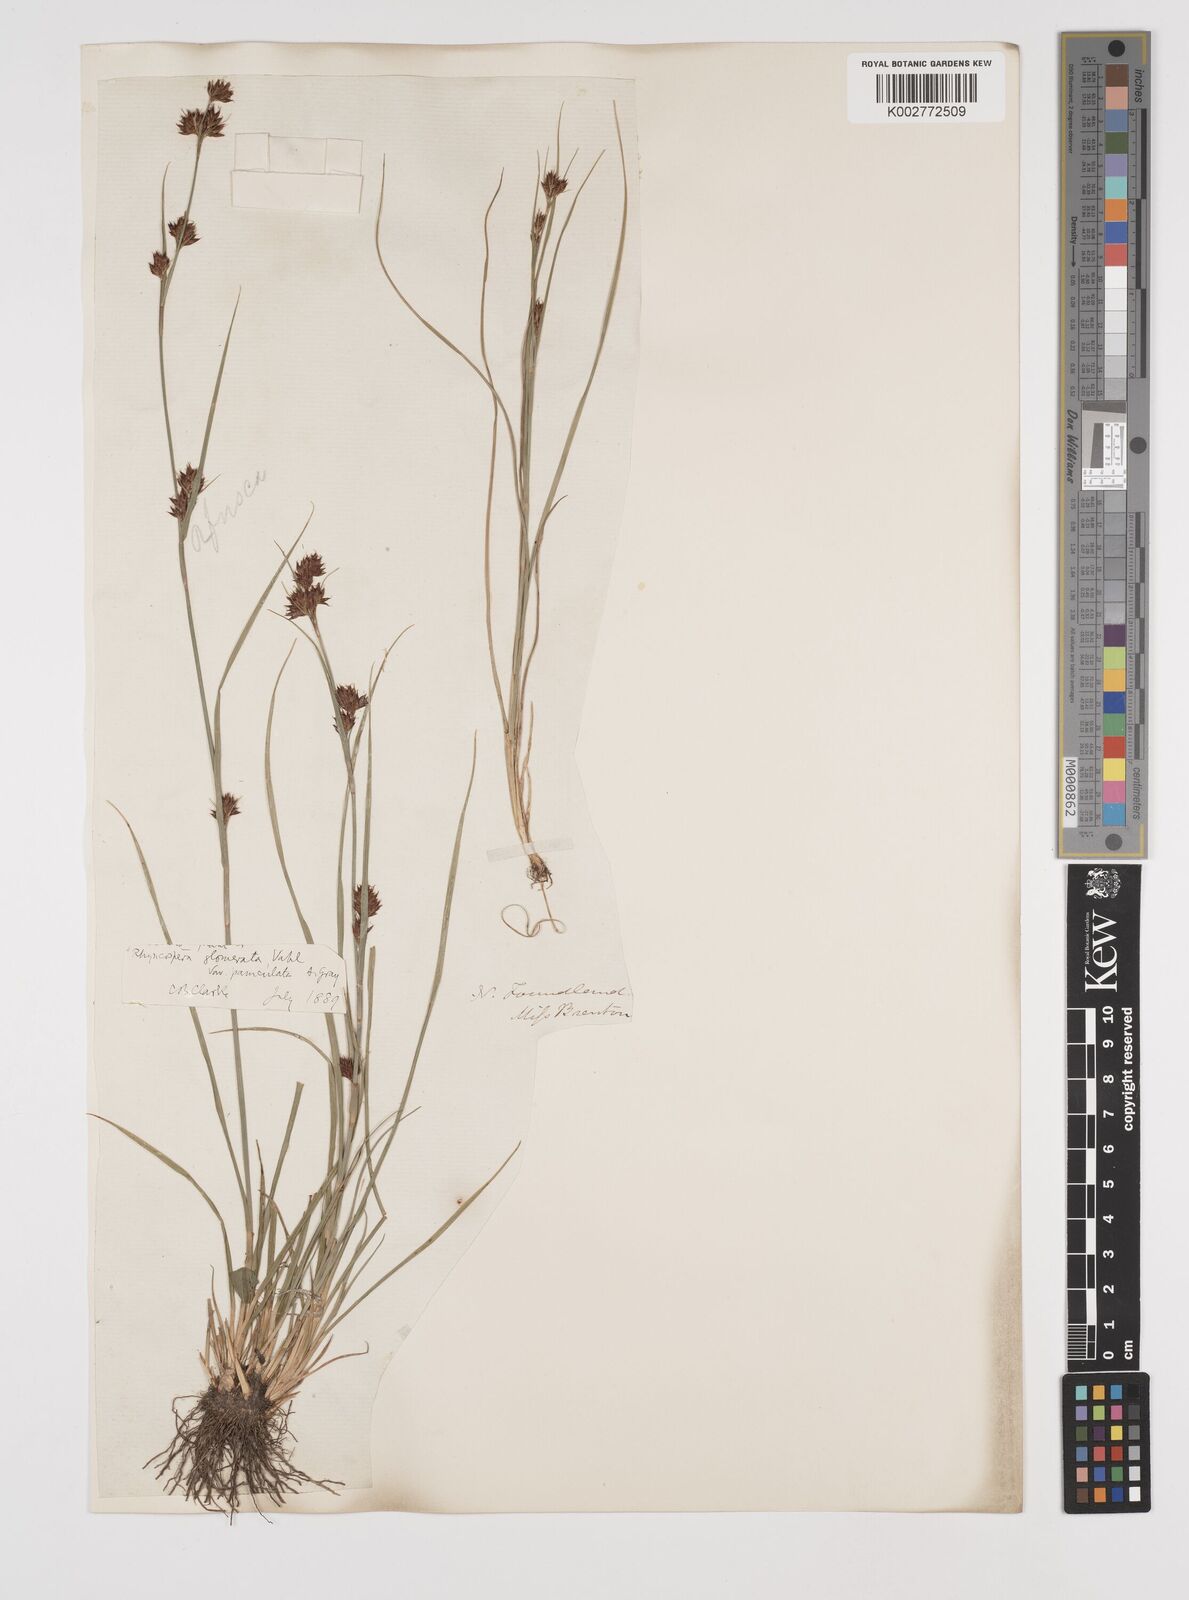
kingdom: Plantae
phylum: Tracheophyta
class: Liliopsida
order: Poales
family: Cyperaceae
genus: Rhynchospora
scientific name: Rhynchospora glomerata
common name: Cluster beak sedge
